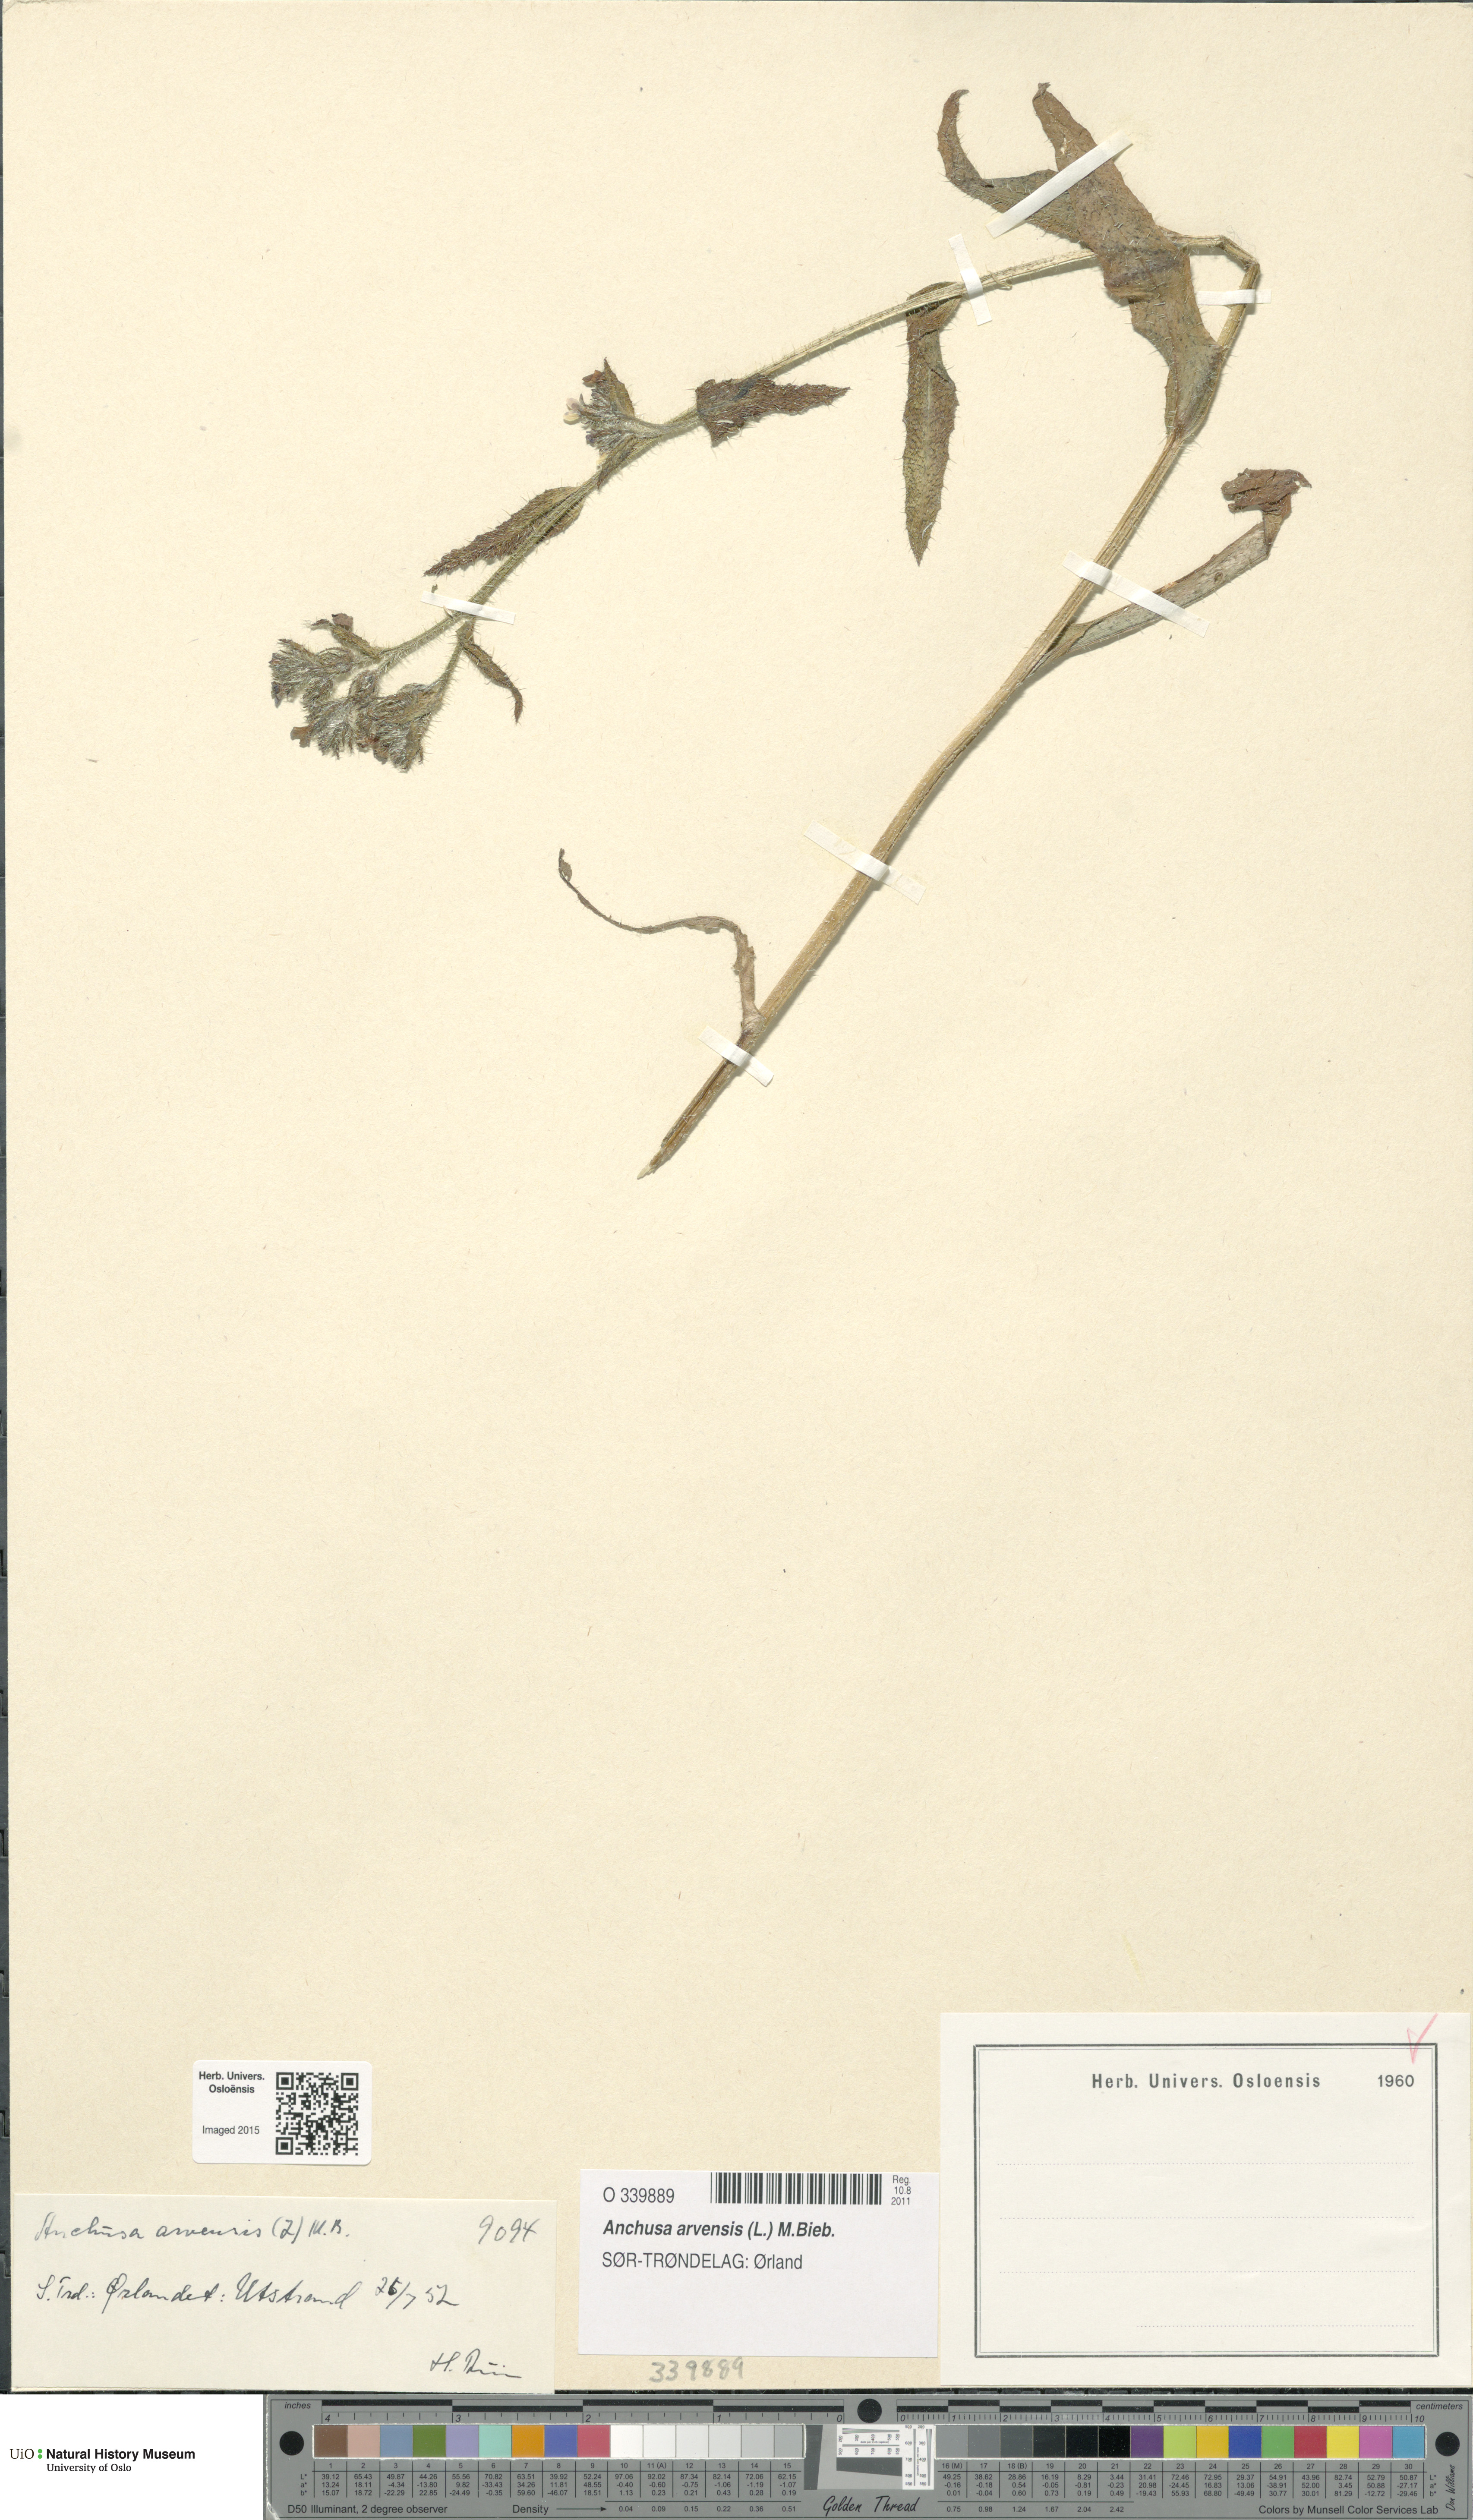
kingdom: Plantae
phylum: Tracheophyta
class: Magnoliopsida
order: Boraginales
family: Boraginaceae
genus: Lycopsis
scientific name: Lycopsis arvensis
